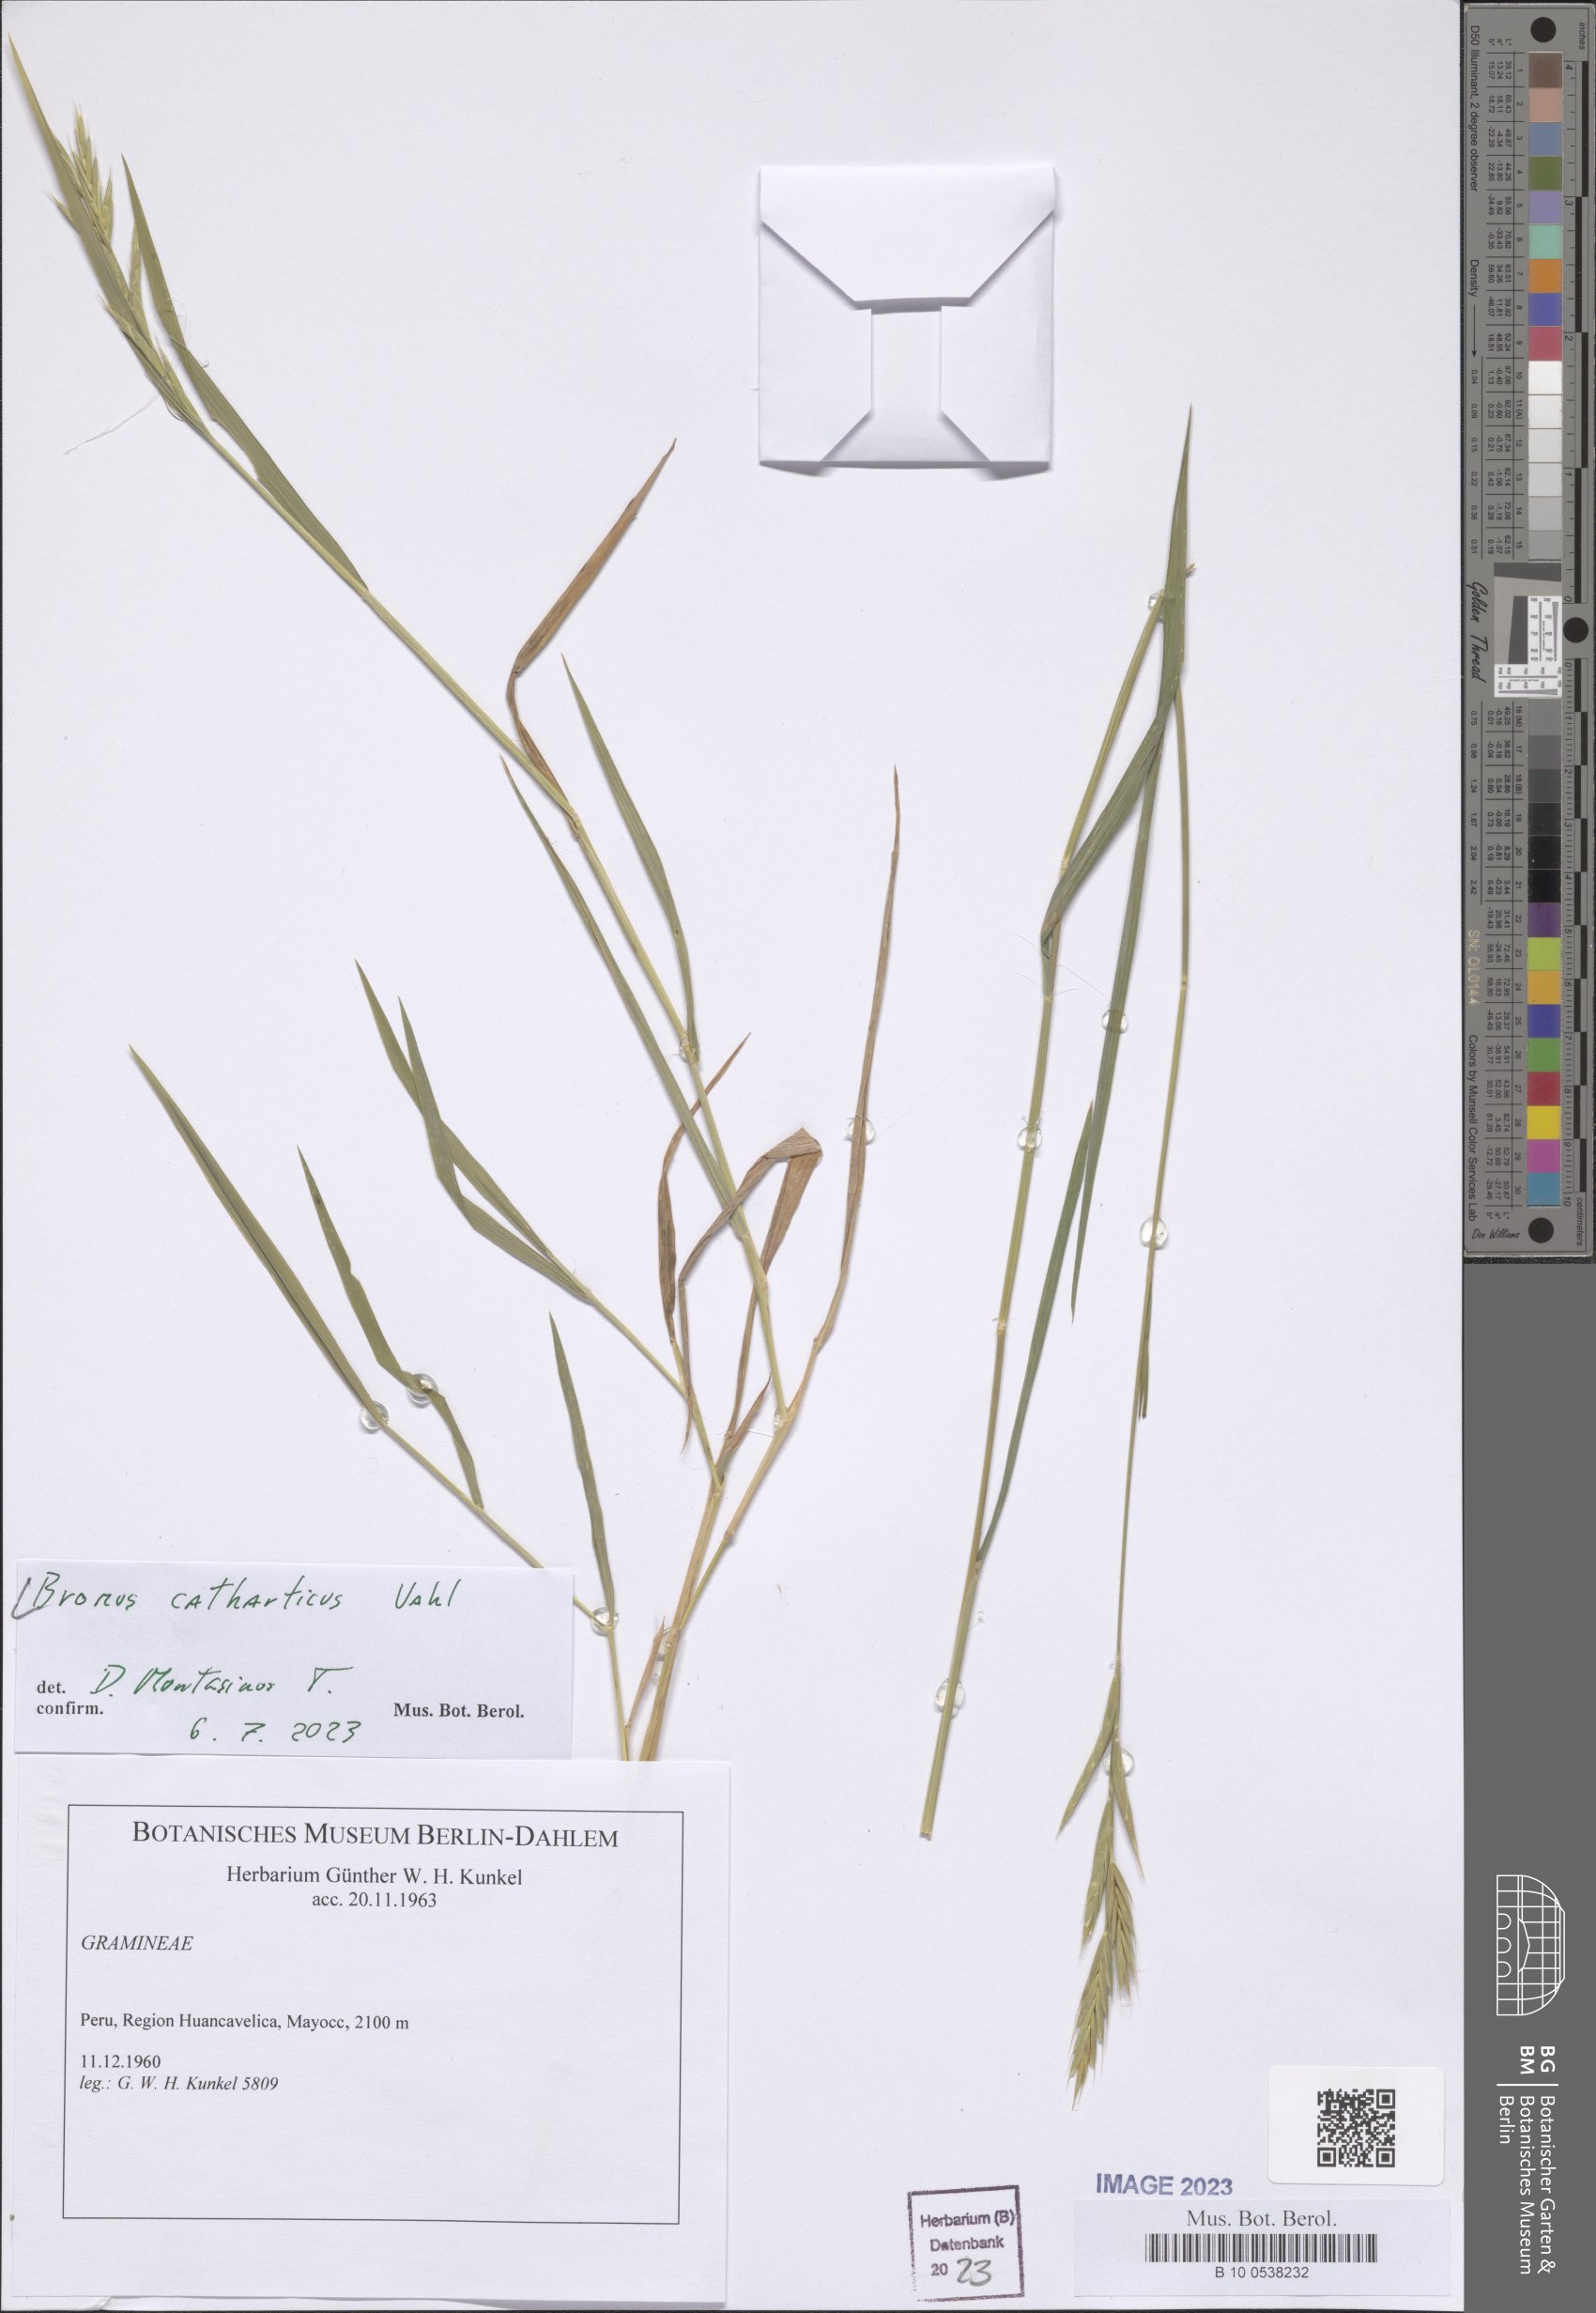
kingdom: Plantae
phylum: Tracheophyta
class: Liliopsida
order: Poales
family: Poaceae
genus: Bromus
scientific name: Bromus catharticus
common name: Rescuegrass
